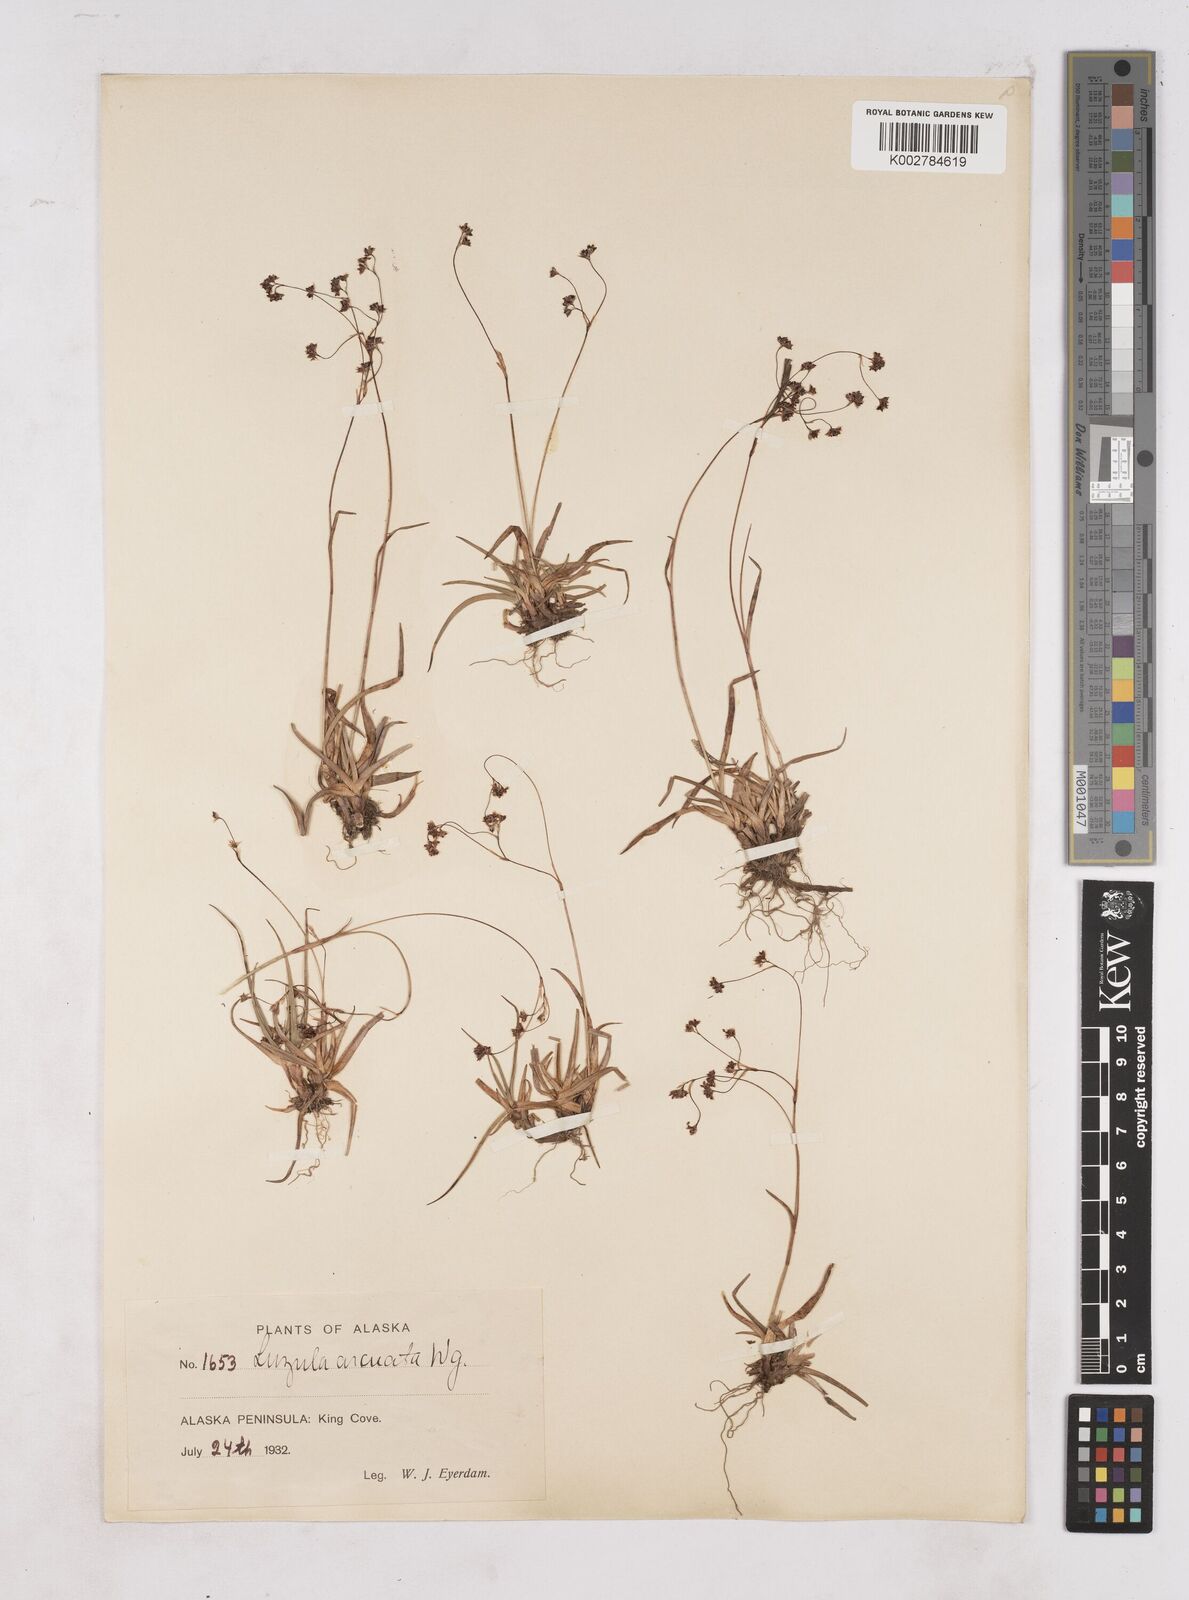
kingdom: Plantae
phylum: Tracheophyta
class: Liliopsida
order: Poales
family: Juncaceae
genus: Luzula
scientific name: Luzula arcuata
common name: Curved wood-rush
